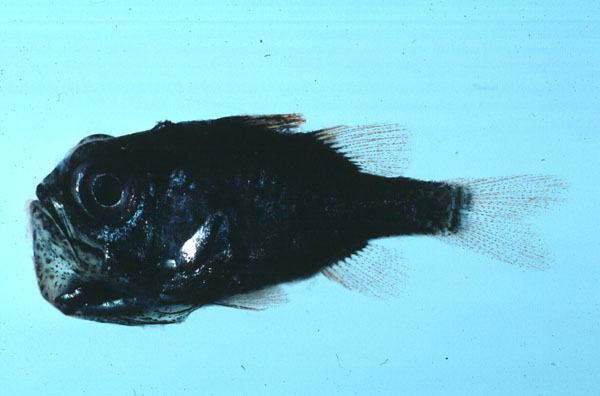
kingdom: Animalia
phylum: Chordata
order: Perciformes
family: Apogonidae
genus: Siphamia
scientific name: Siphamia mossambica
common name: Sea urchin cardinal
